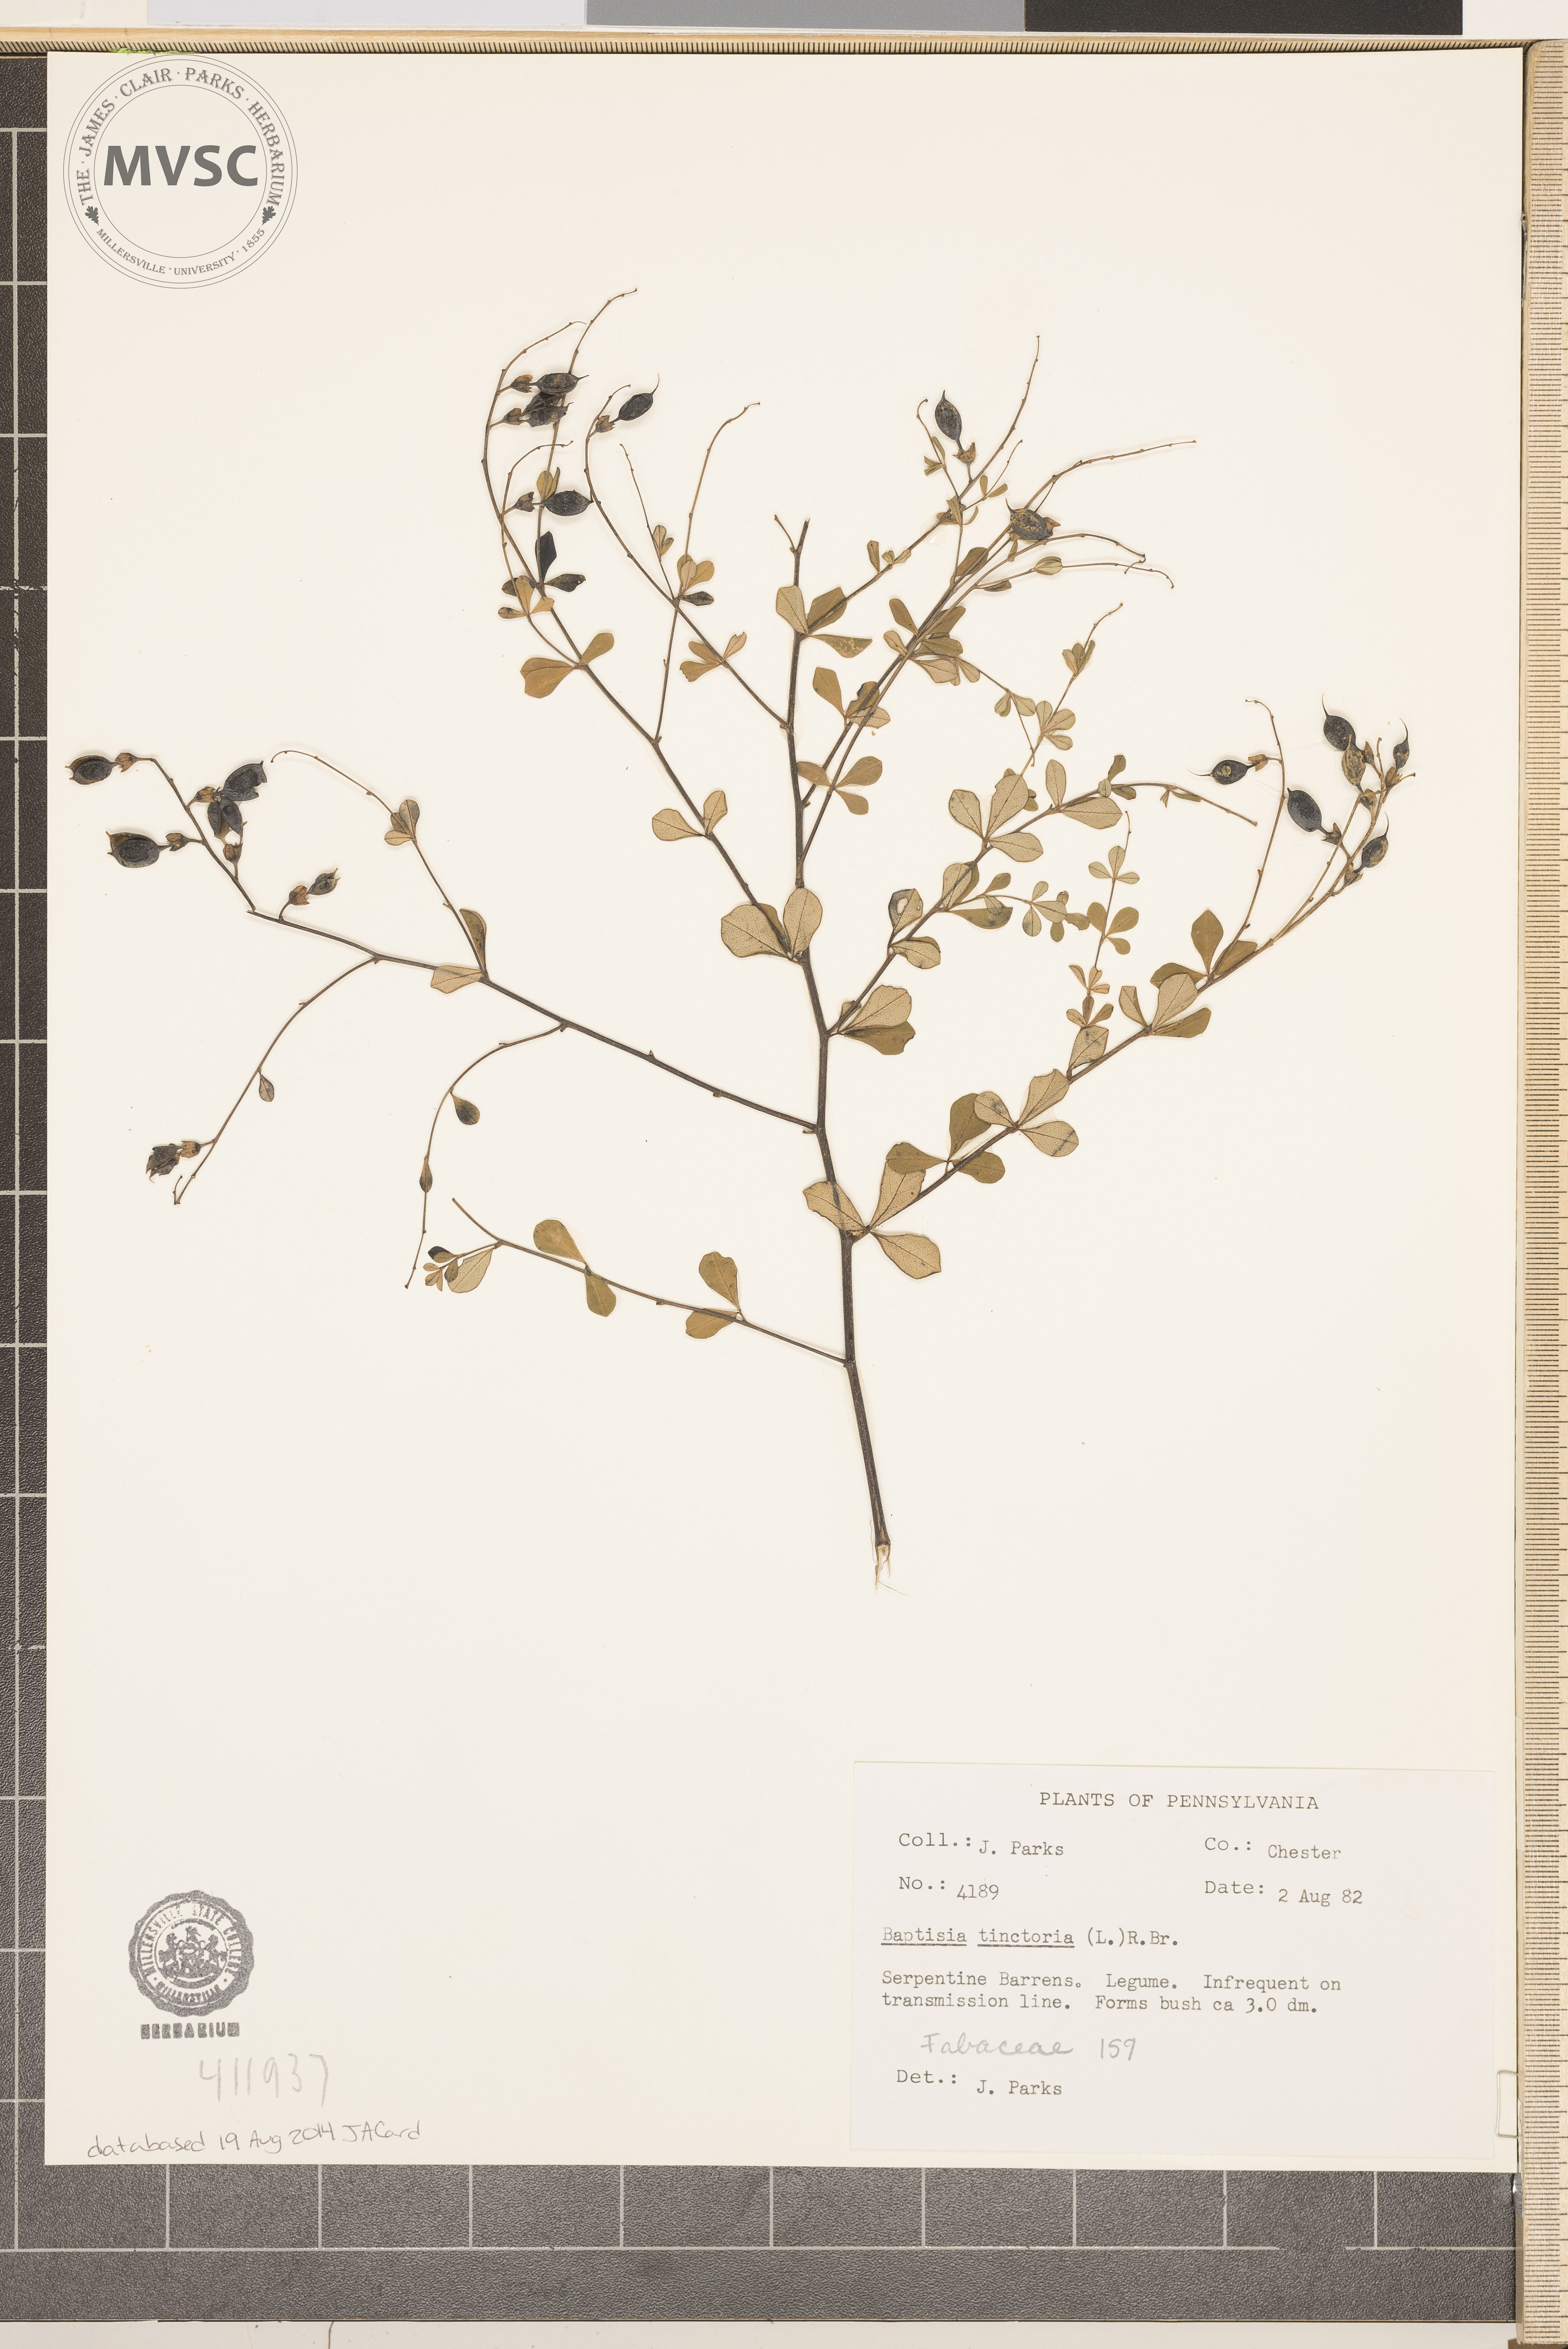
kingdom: Plantae
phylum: Tracheophyta
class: Magnoliopsida
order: Fabales
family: Fabaceae
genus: Baptisia
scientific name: Baptisia tinctoria
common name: Wild indigo
